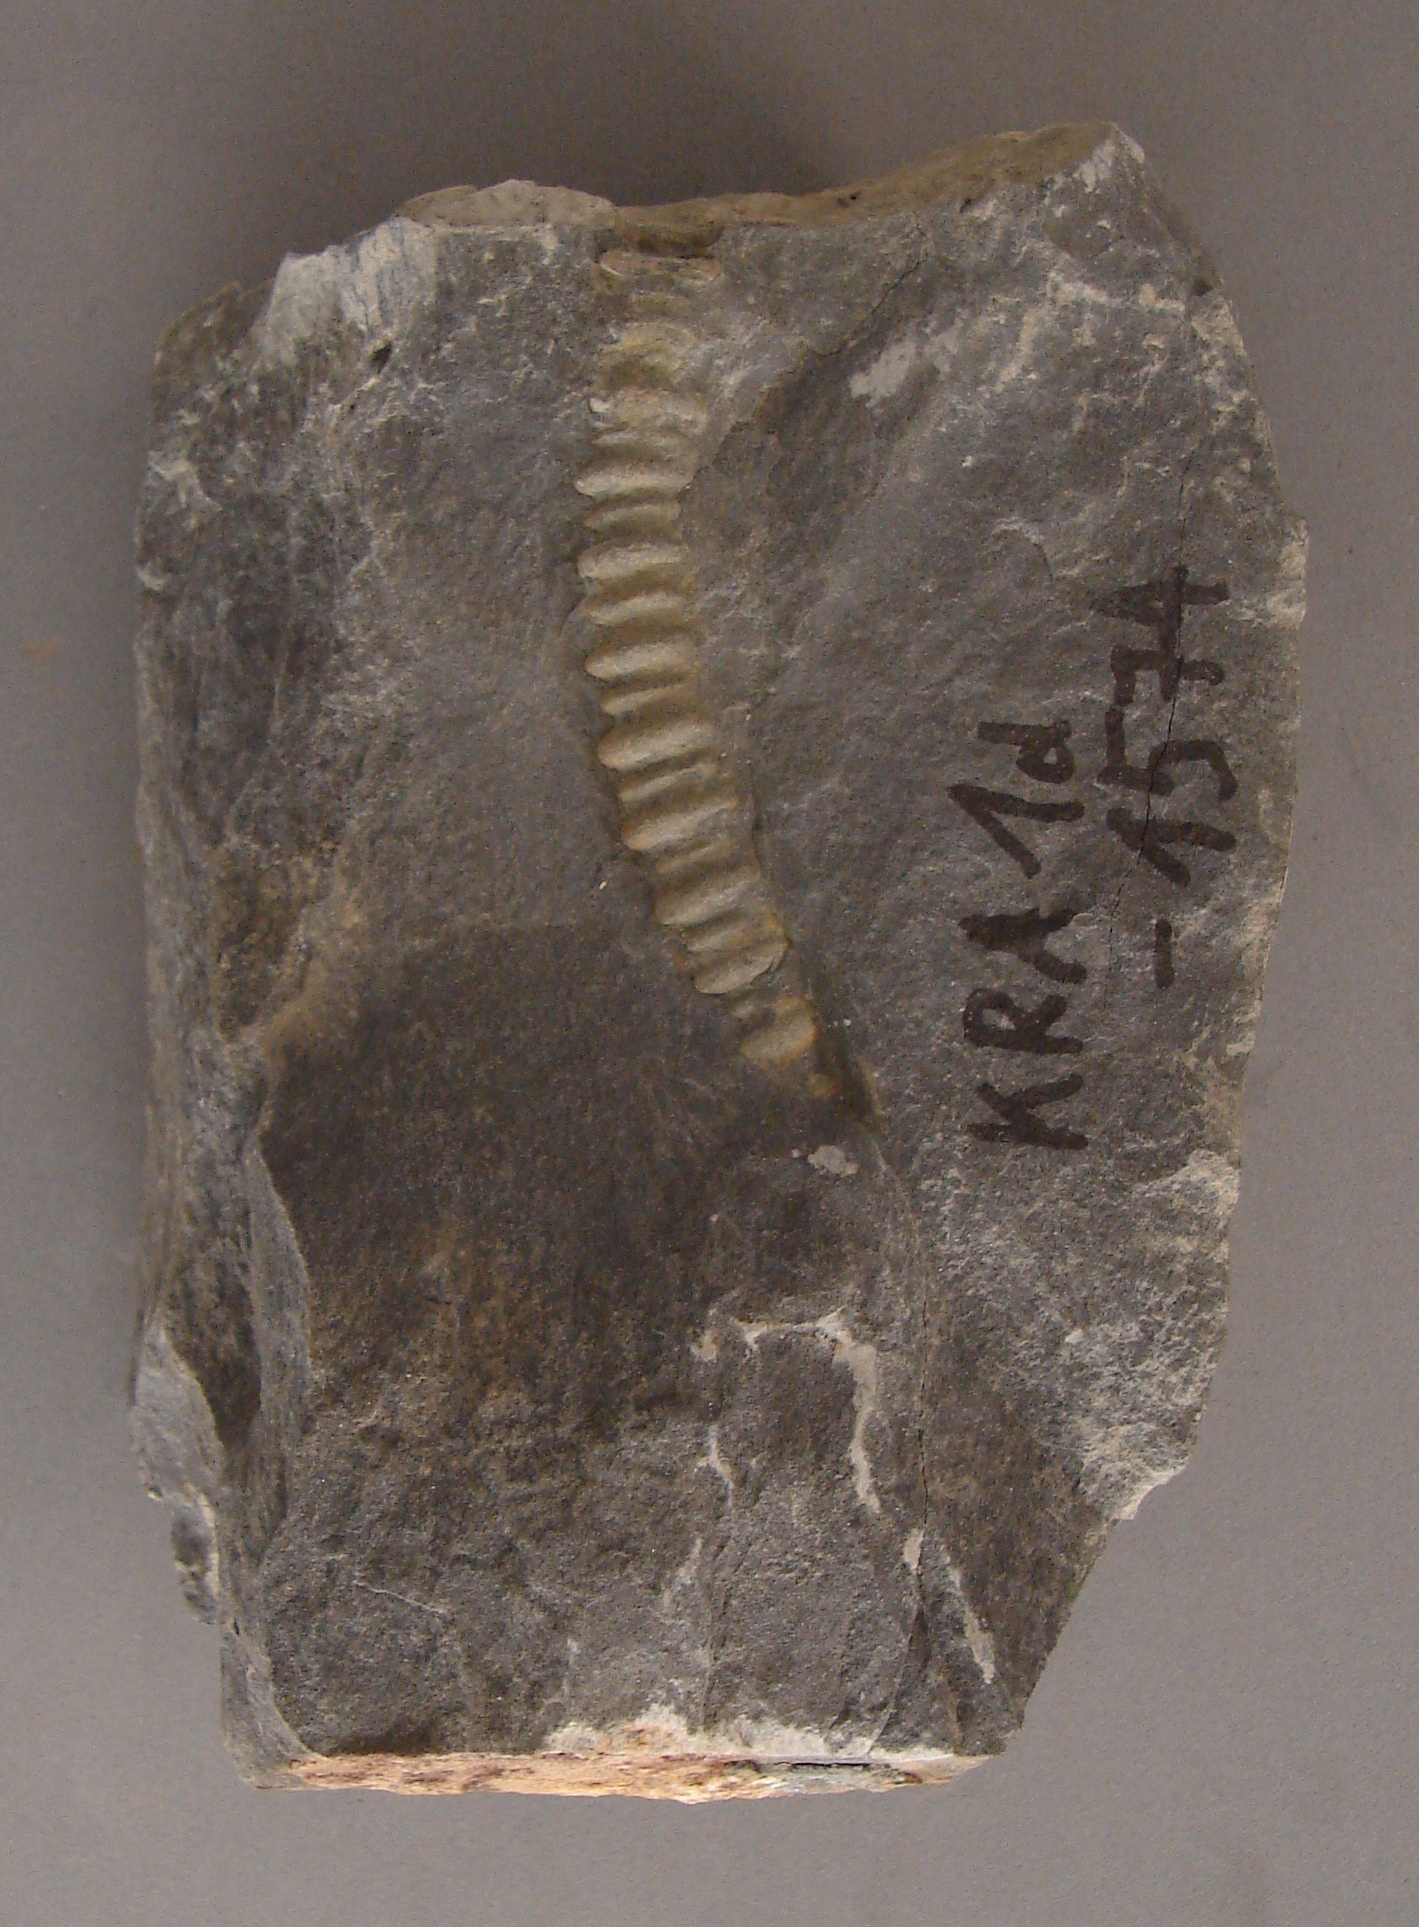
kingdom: Animalia
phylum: Echinodermata
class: Crinoidea
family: Rhodocrinitidae
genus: Acanthocrinus
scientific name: Acanthocrinus
